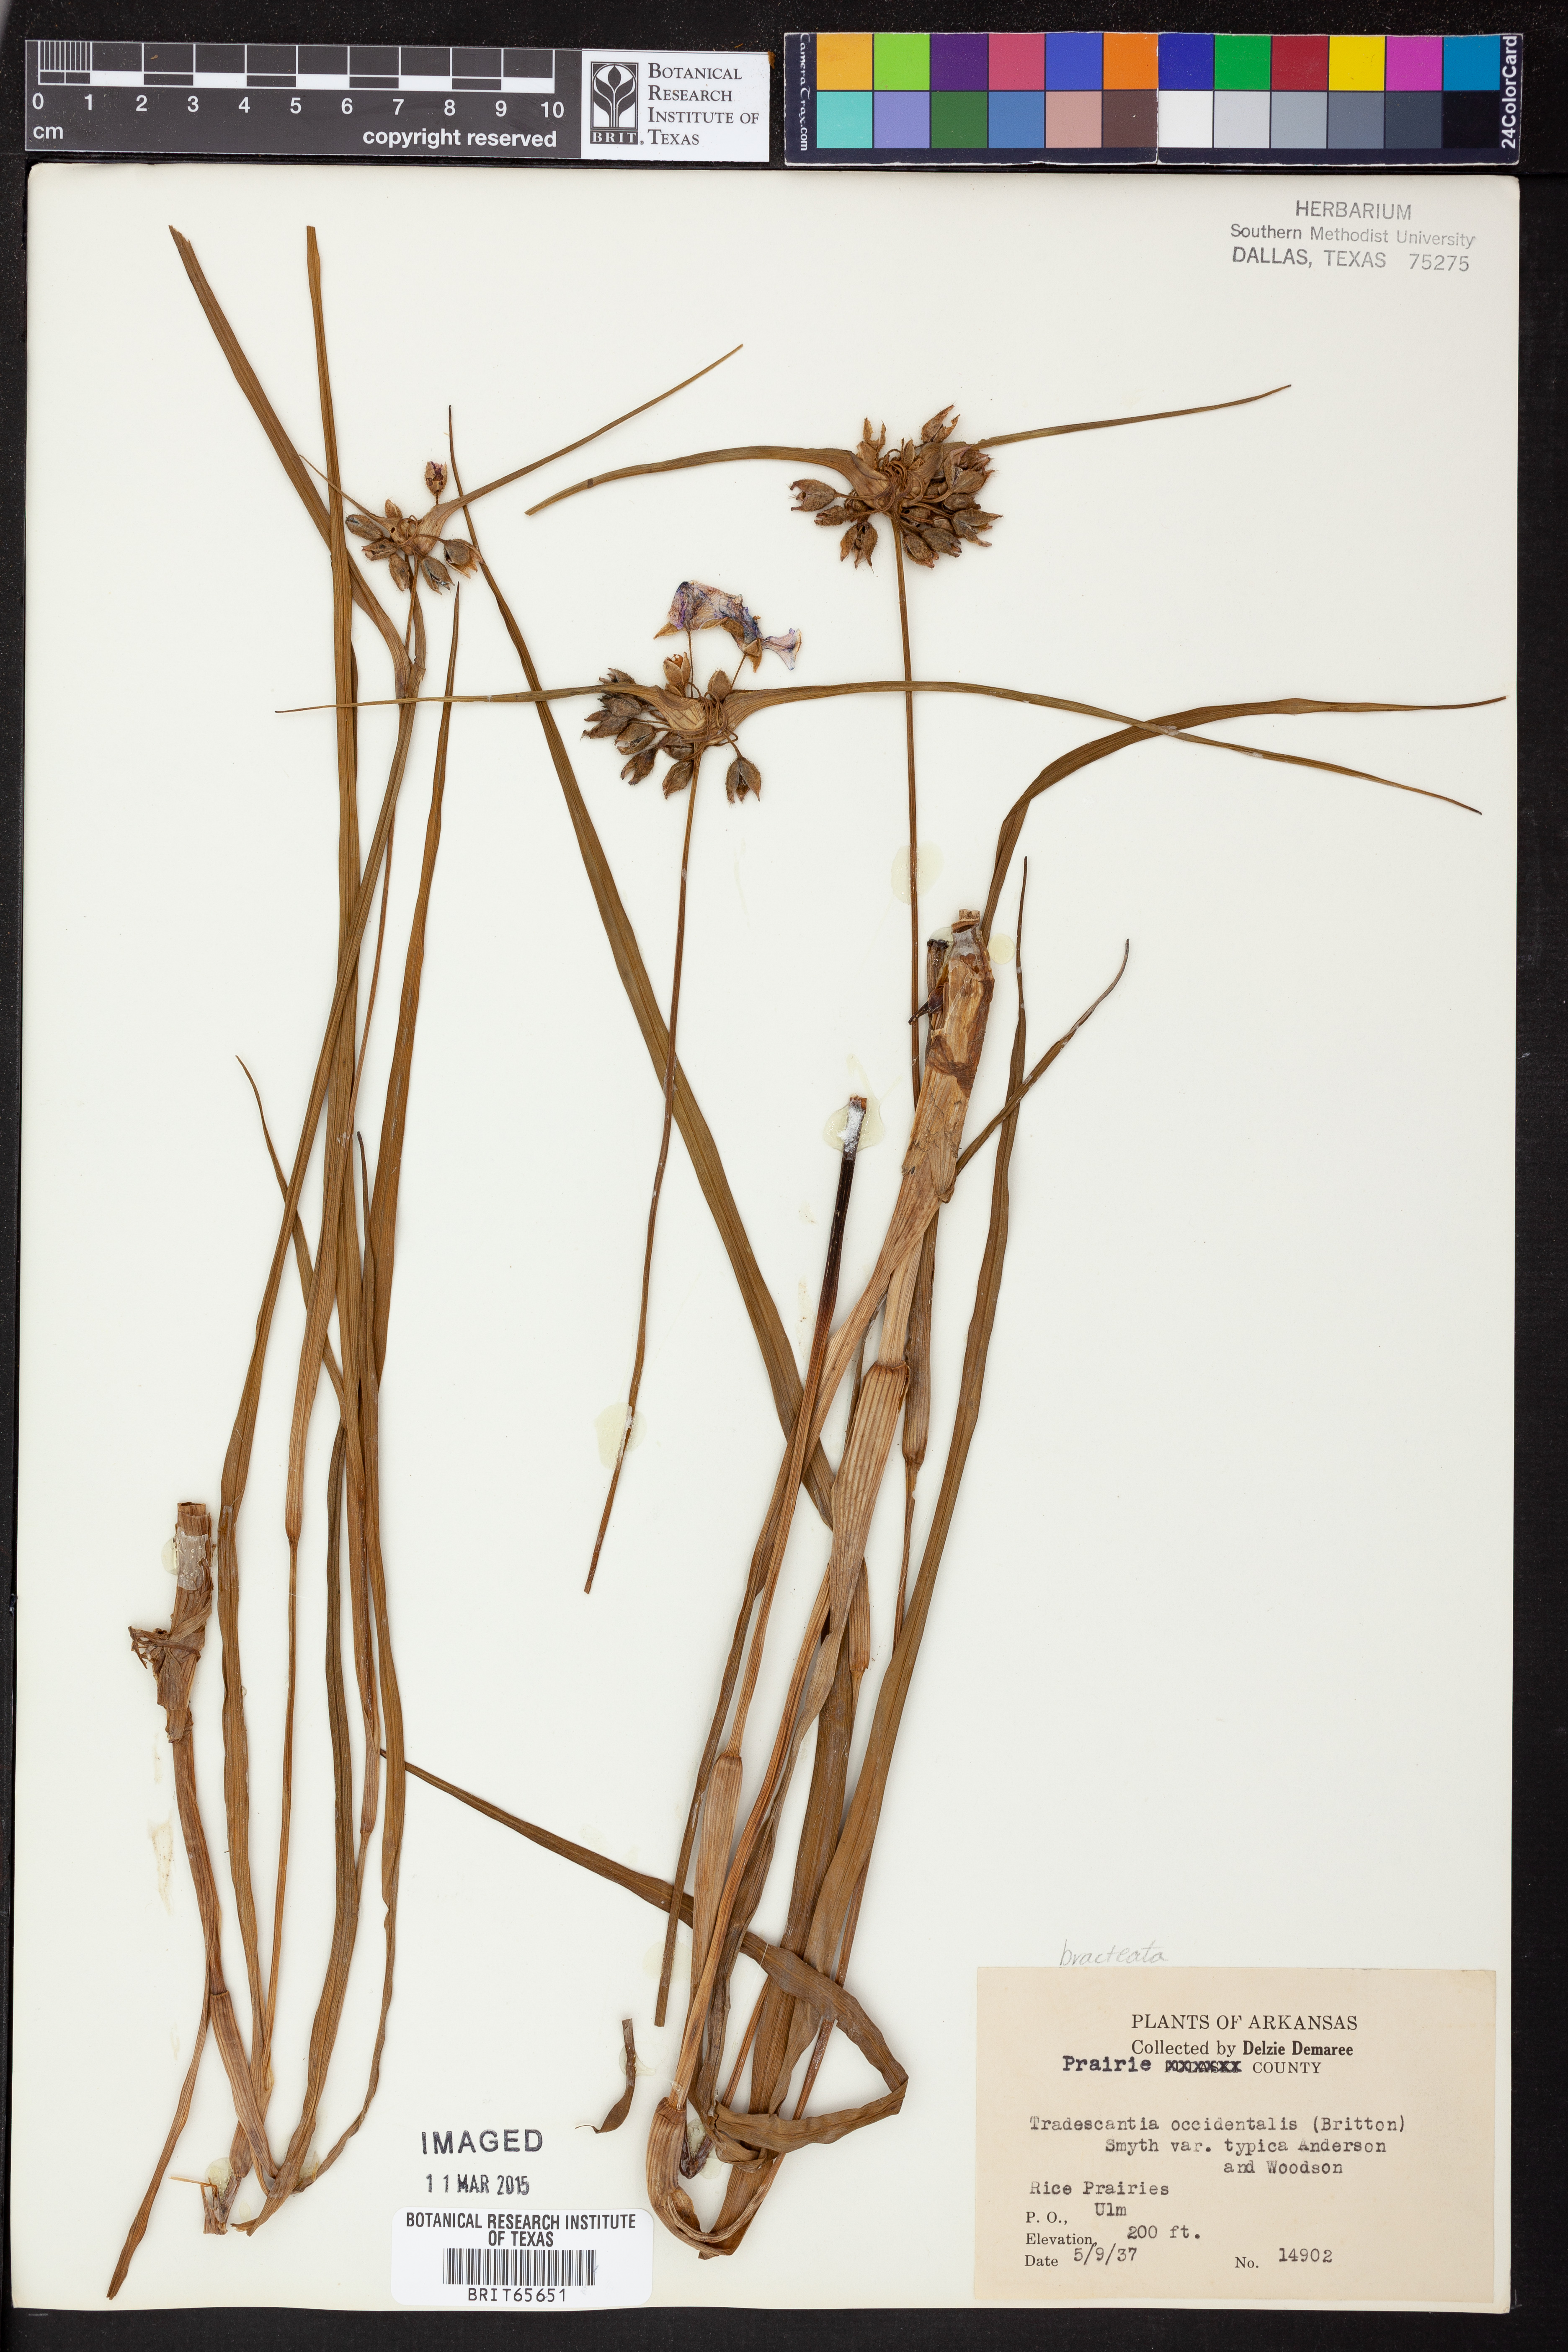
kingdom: Plantae
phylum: Tracheophyta
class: Liliopsida
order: Commelinales
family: Commelinaceae
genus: Tradescantia
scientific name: Tradescantia occidentalis
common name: Prairie spiderwort
